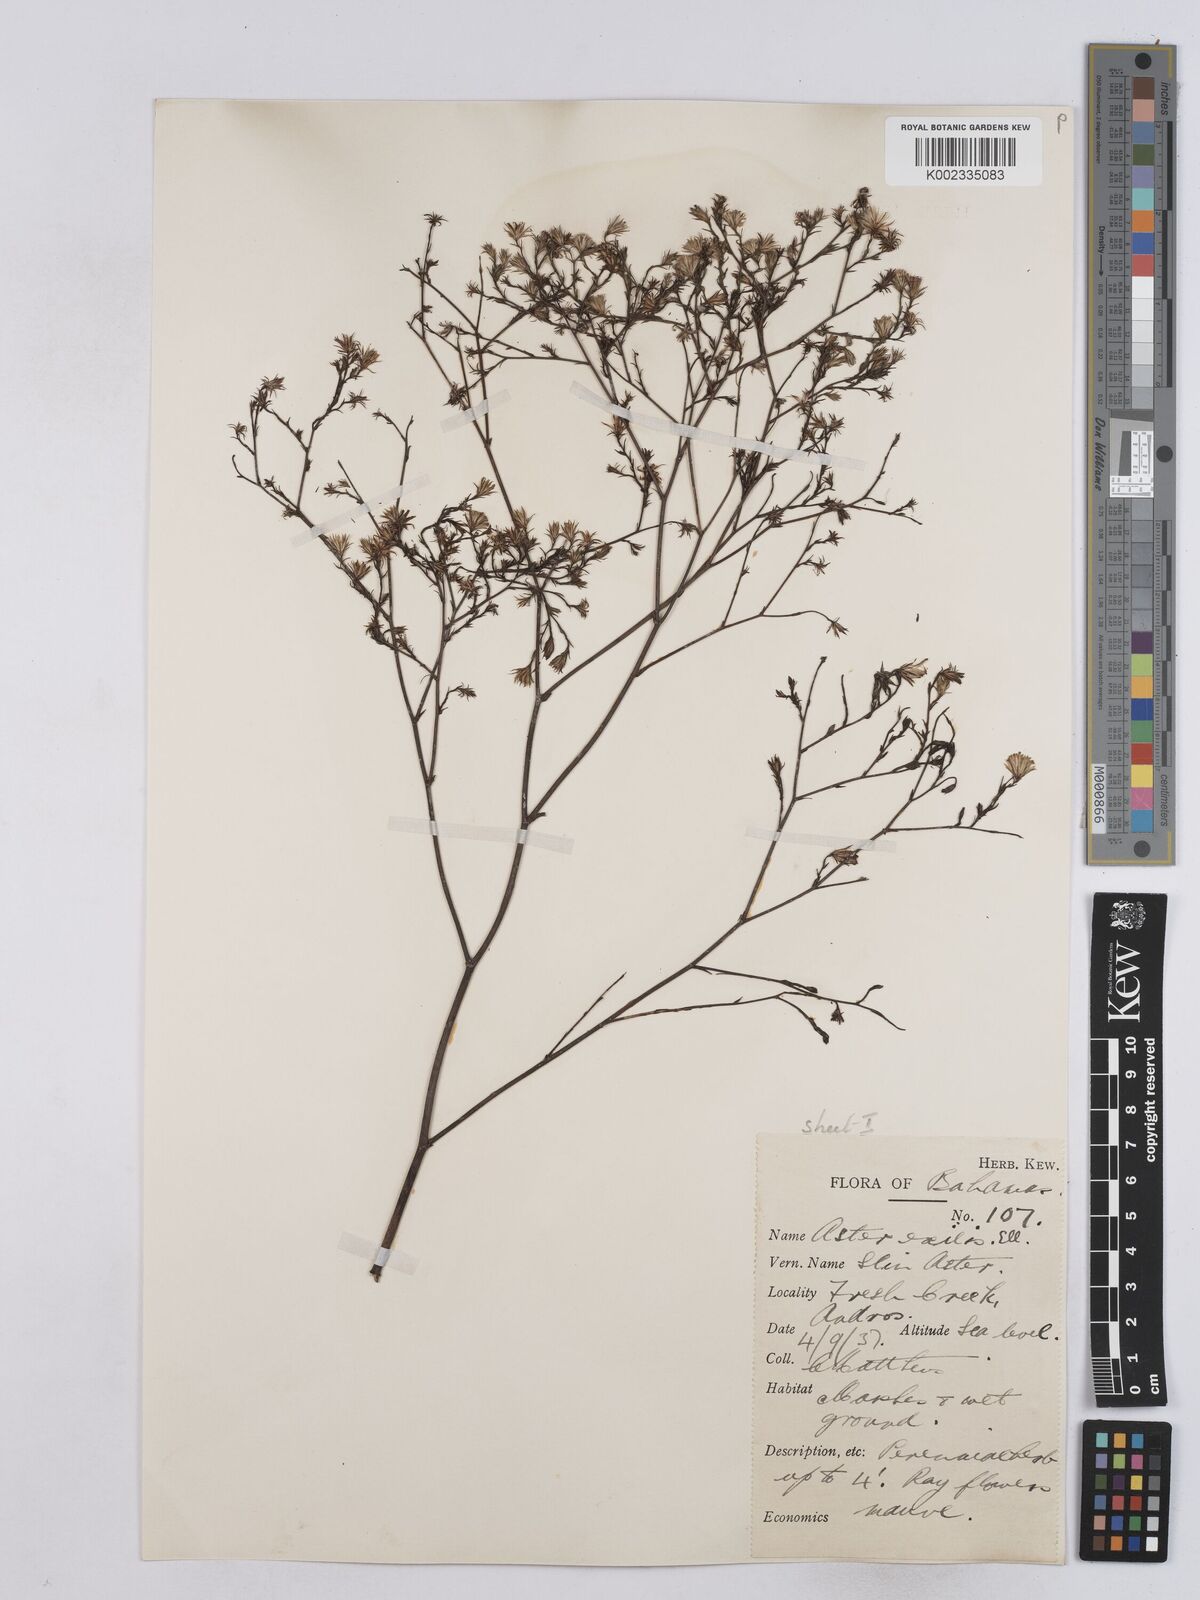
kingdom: Plantae
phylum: Tracheophyta
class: Magnoliopsida
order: Asterales
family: Asteraceae
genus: Symphyotrichum
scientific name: Symphyotrichum expansum
